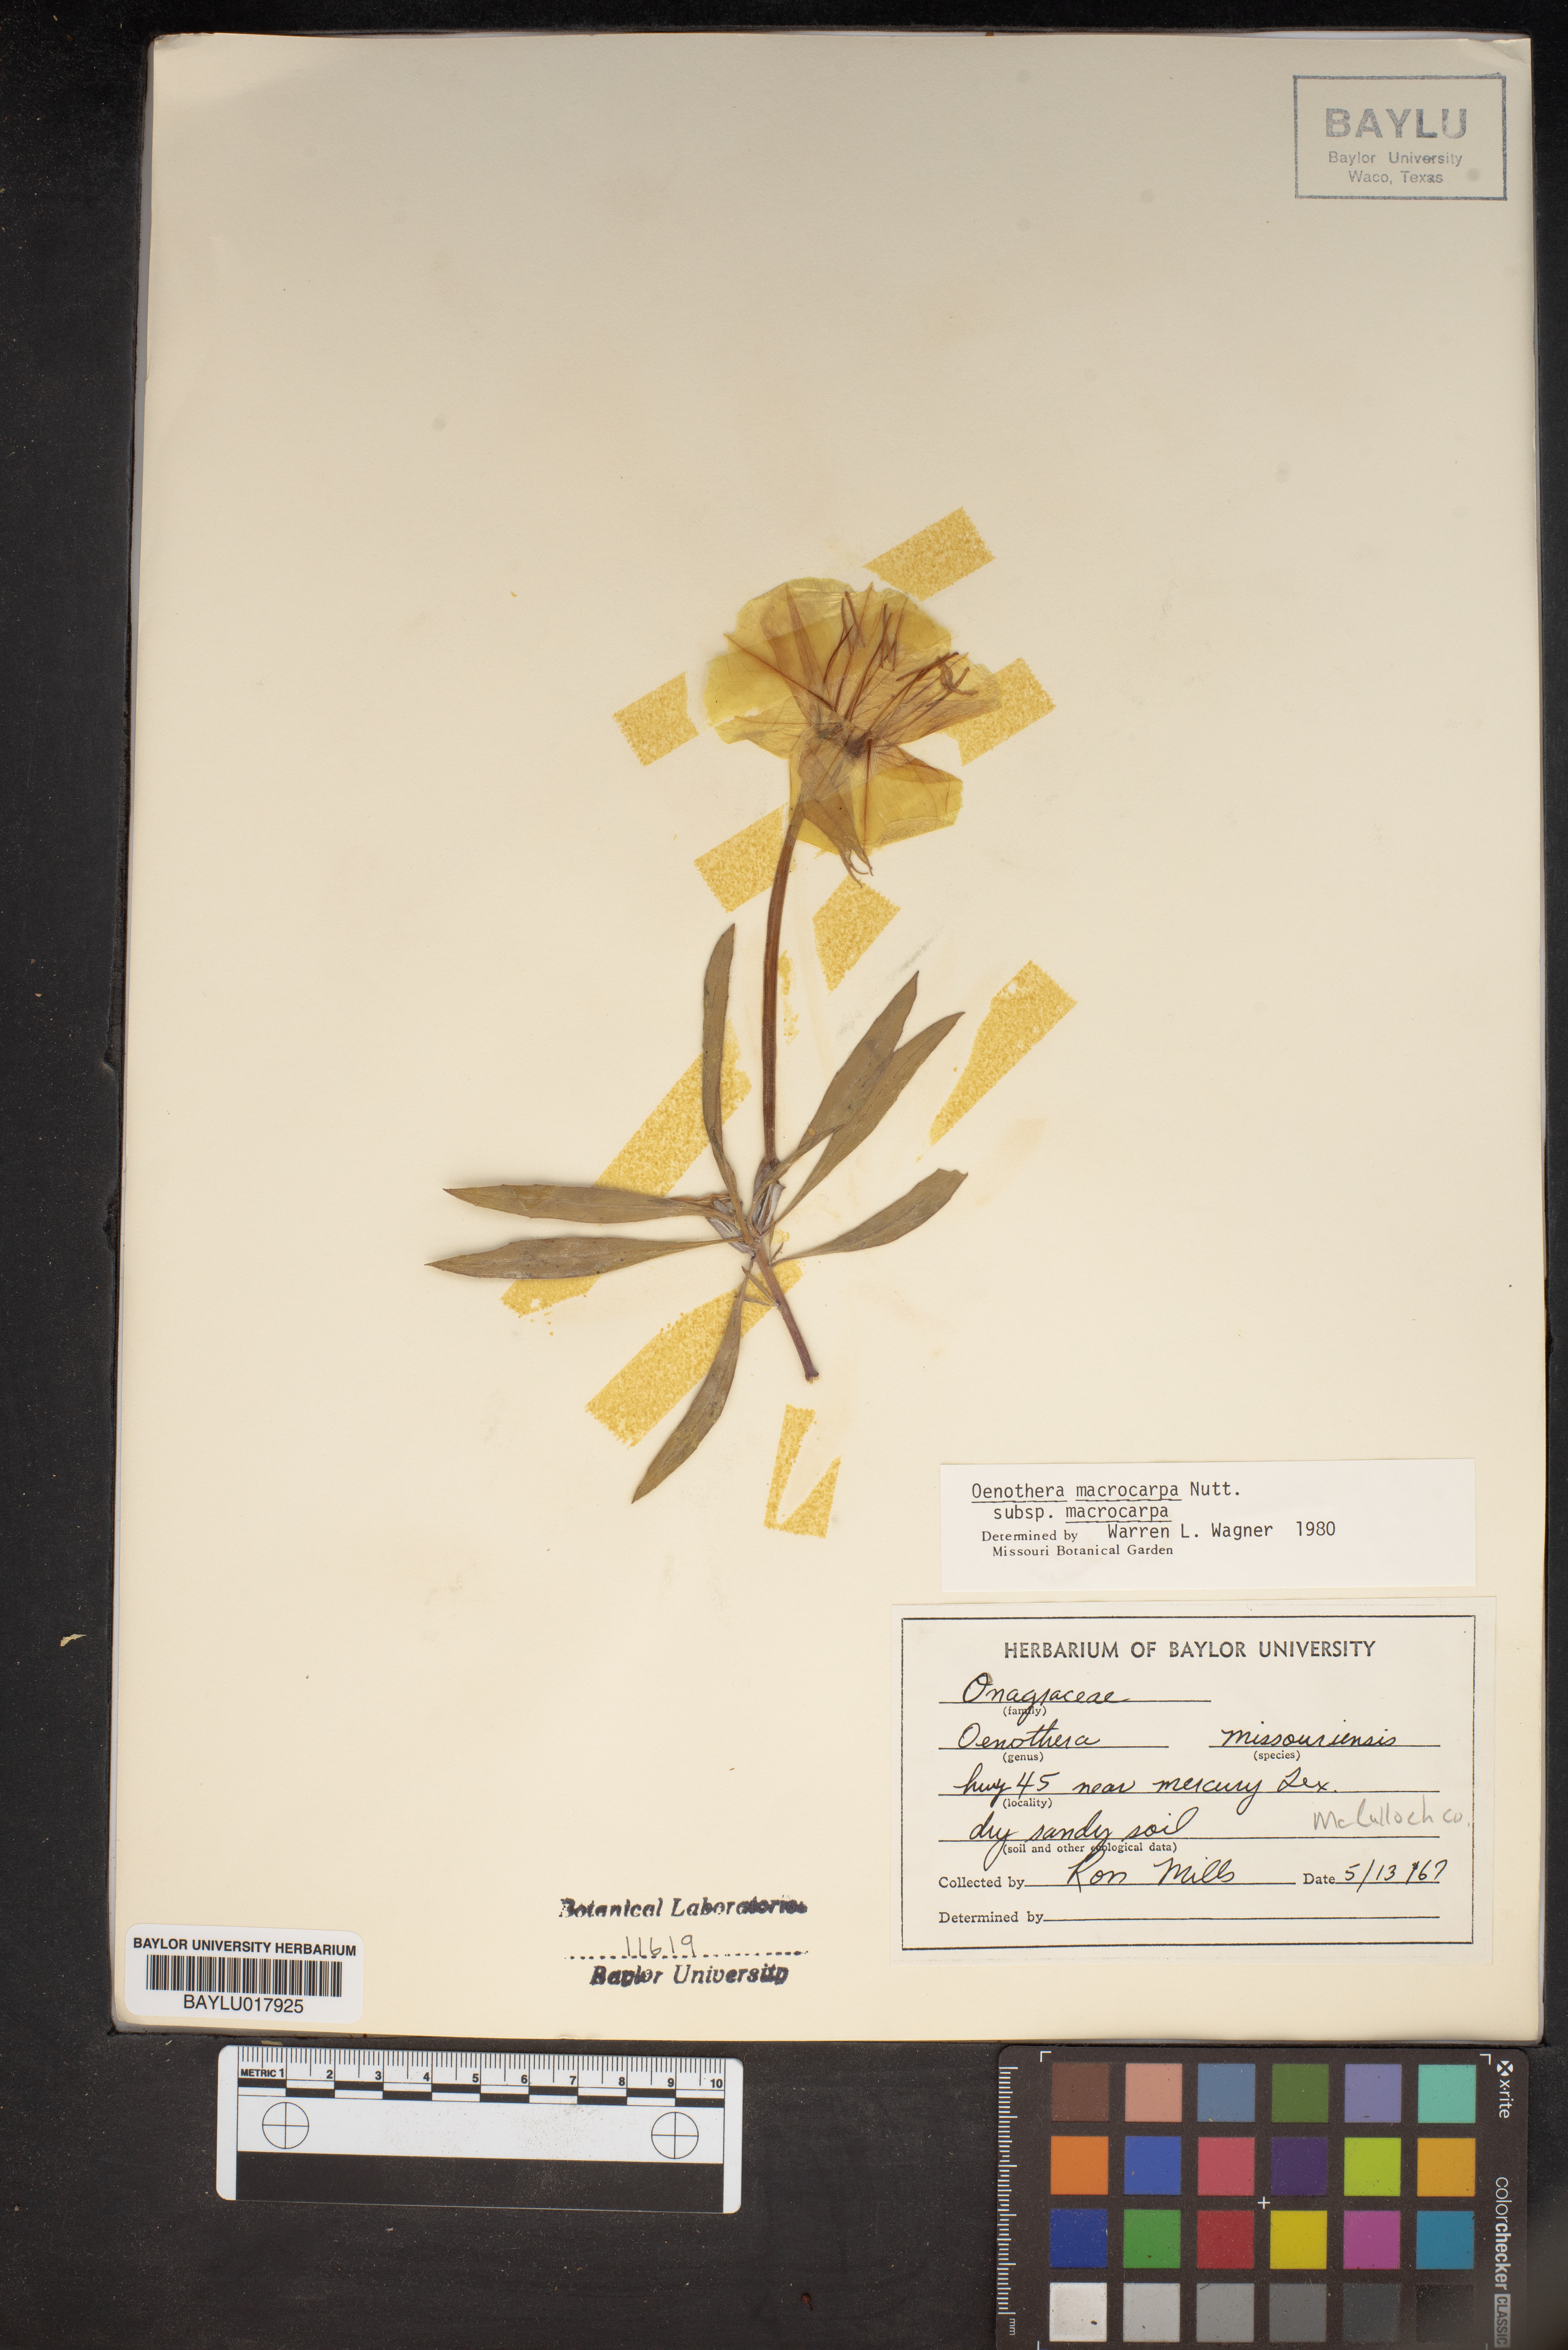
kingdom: Plantae
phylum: Tracheophyta
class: Magnoliopsida
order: Myrtales
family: Onagraceae
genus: Oenothera
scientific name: Oenothera macrocarpa
